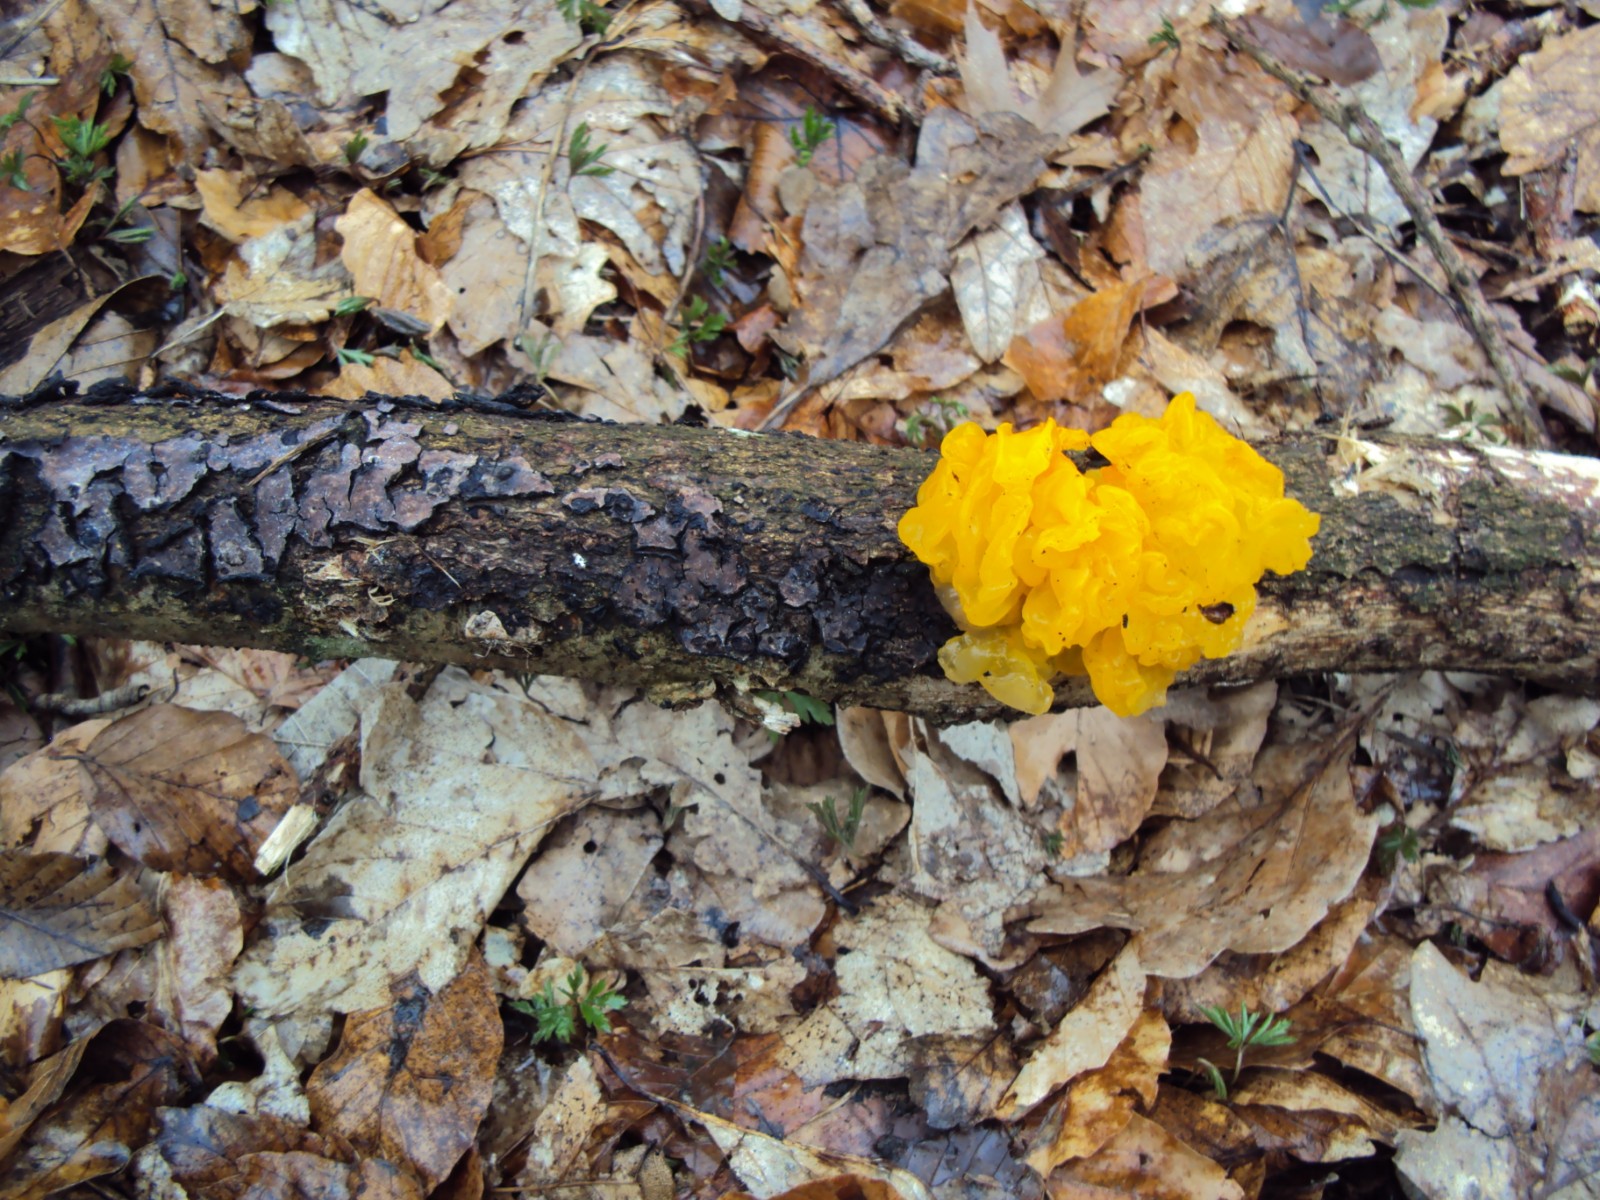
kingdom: Fungi
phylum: Basidiomycota
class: Tremellomycetes
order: Tremellales
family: Tremellaceae
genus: Tremella
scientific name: Tremella mesenterica
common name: gul bævresvamp
